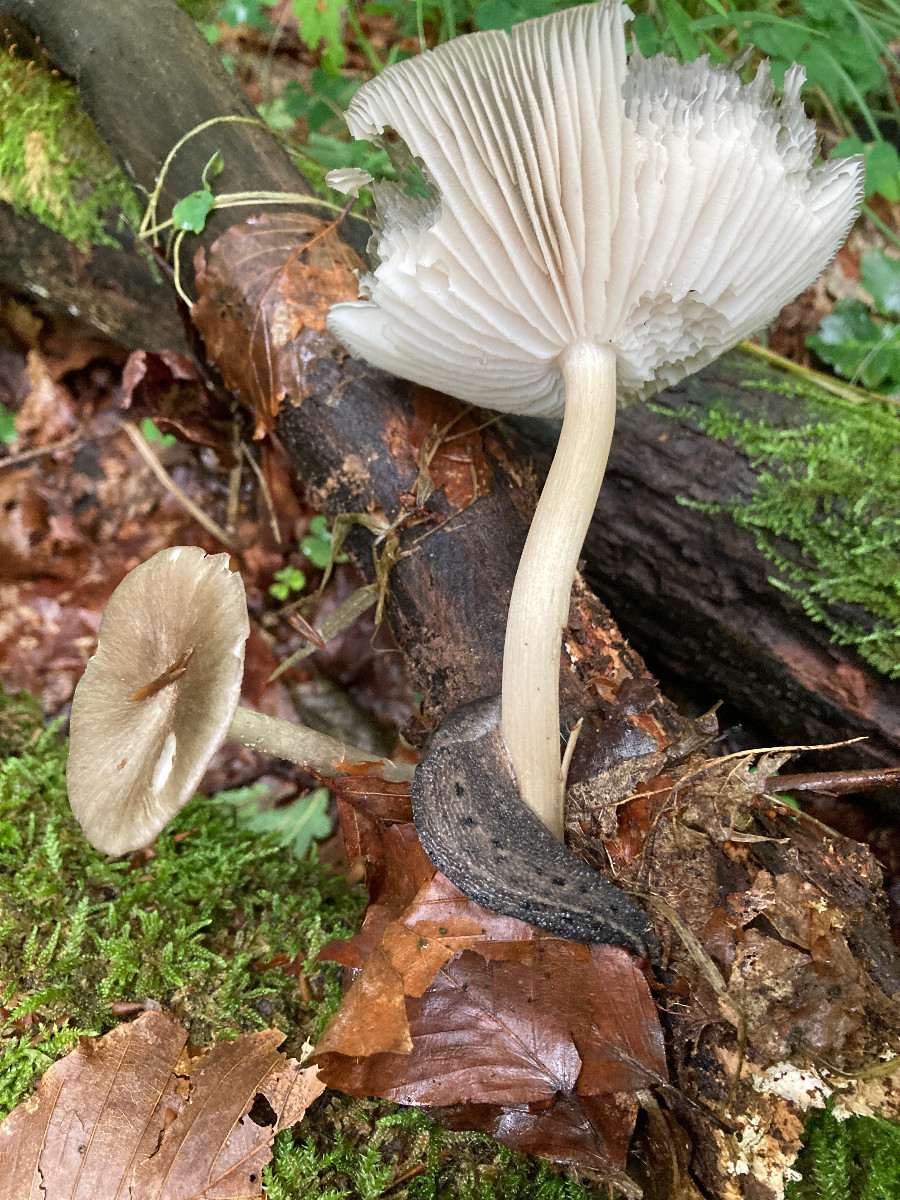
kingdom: Fungi
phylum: Basidiomycota
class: Agaricomycetes
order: Agaricales
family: Tricholomataceae
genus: Megacollybia
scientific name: Megacollybia platyphylla
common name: bredbladet væbnerhat
